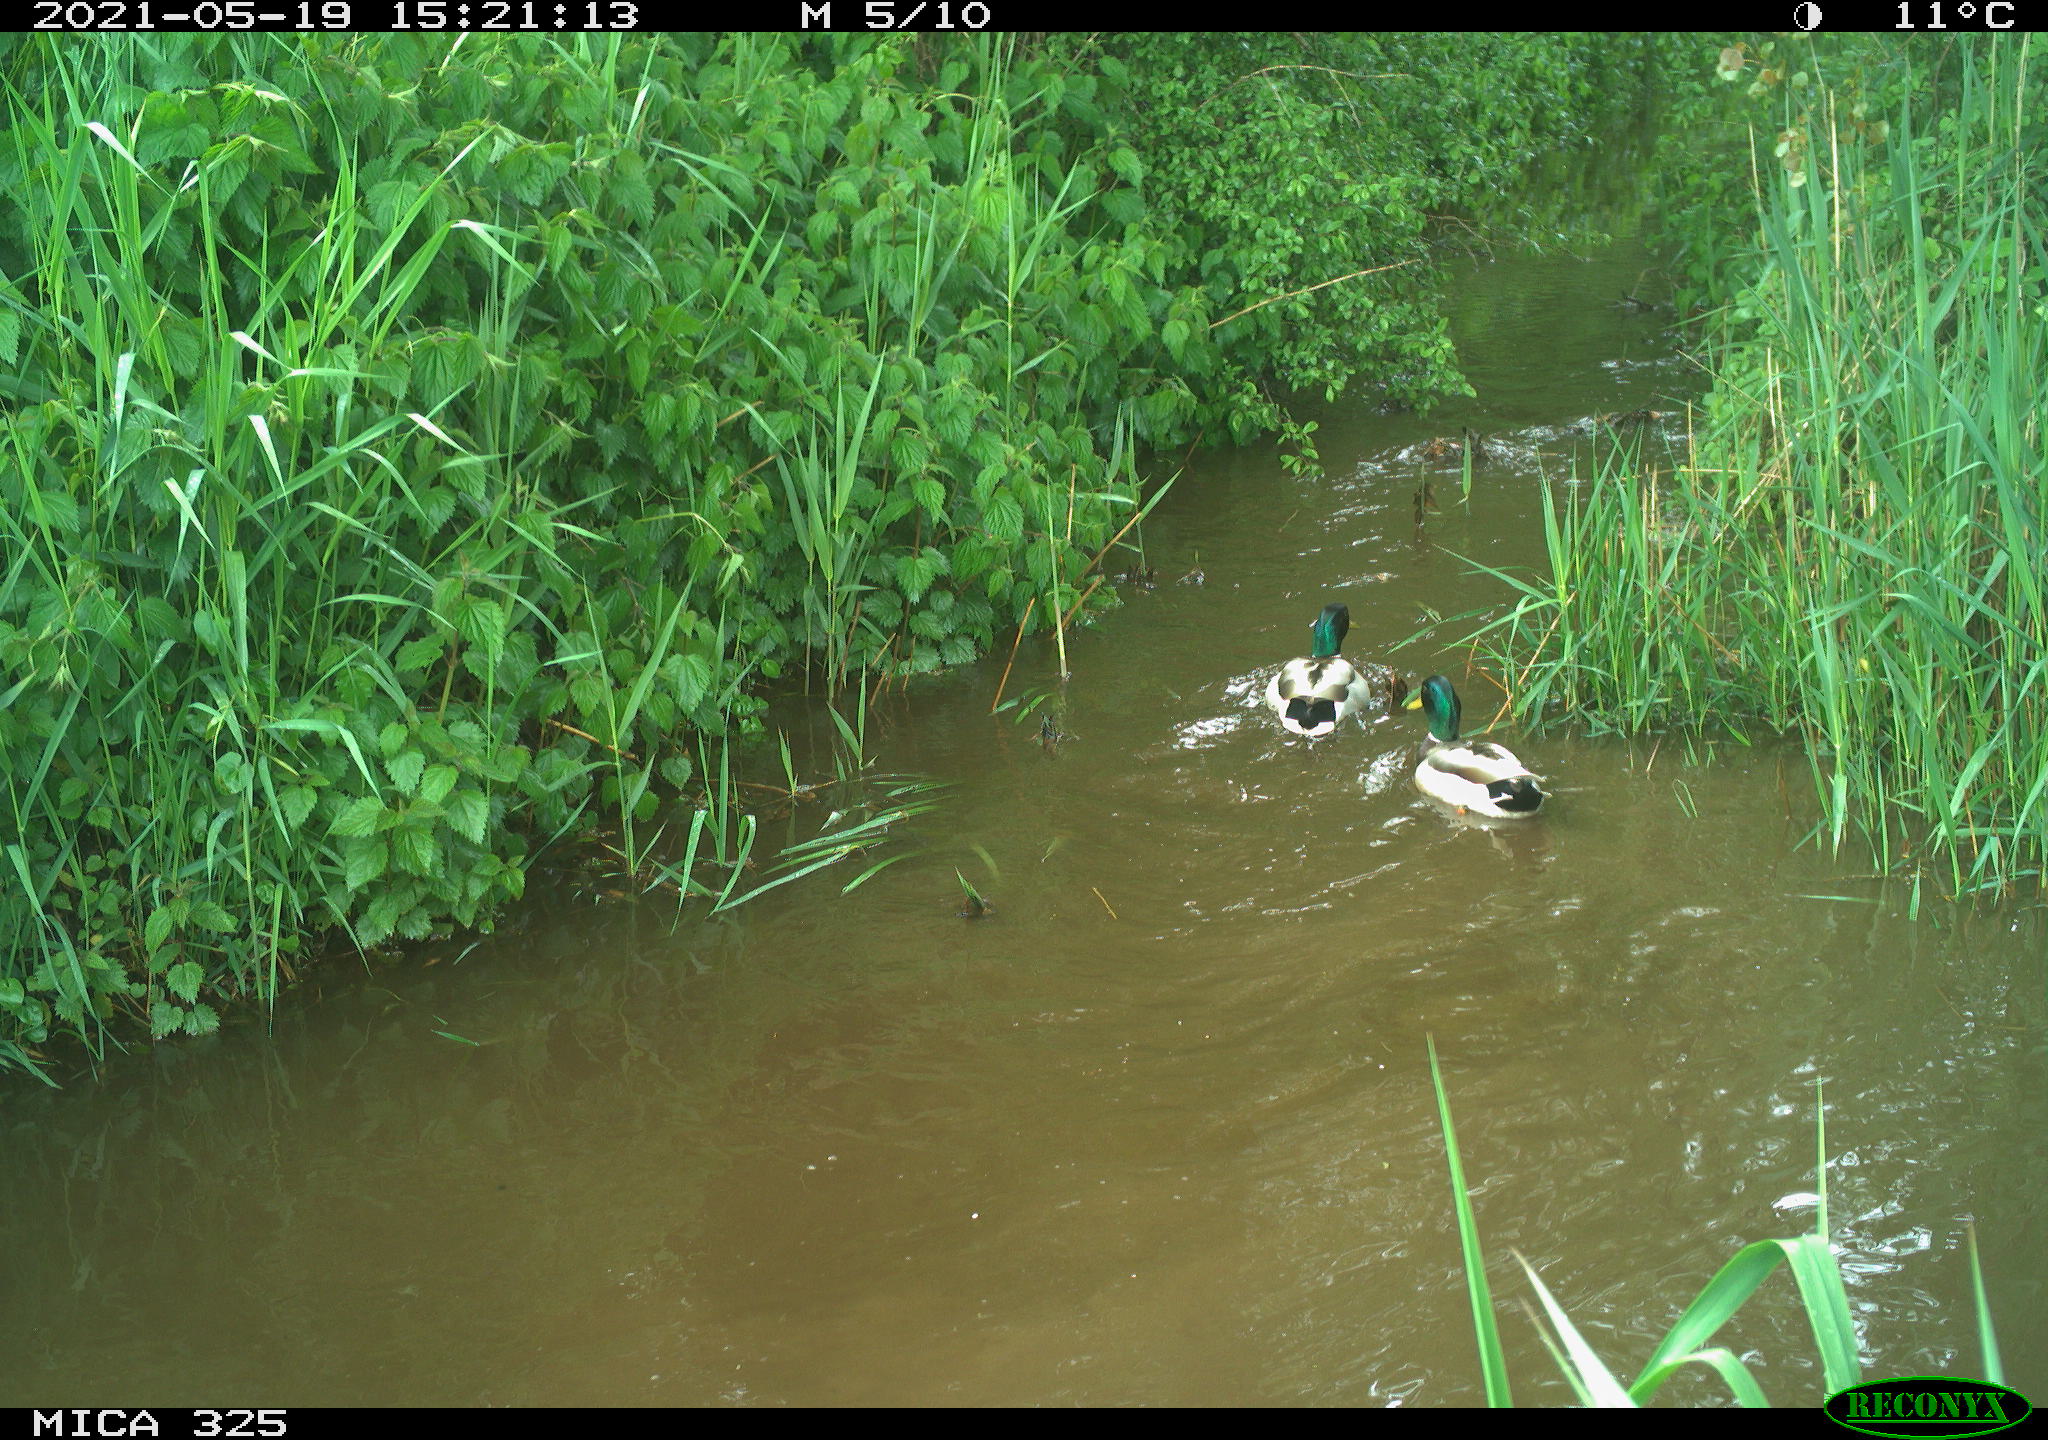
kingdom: Animalia
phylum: Chordata
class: Aves
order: Anseriformes
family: Anatidae
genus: Anas
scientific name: Anas platyrhynchos
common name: Mallard
